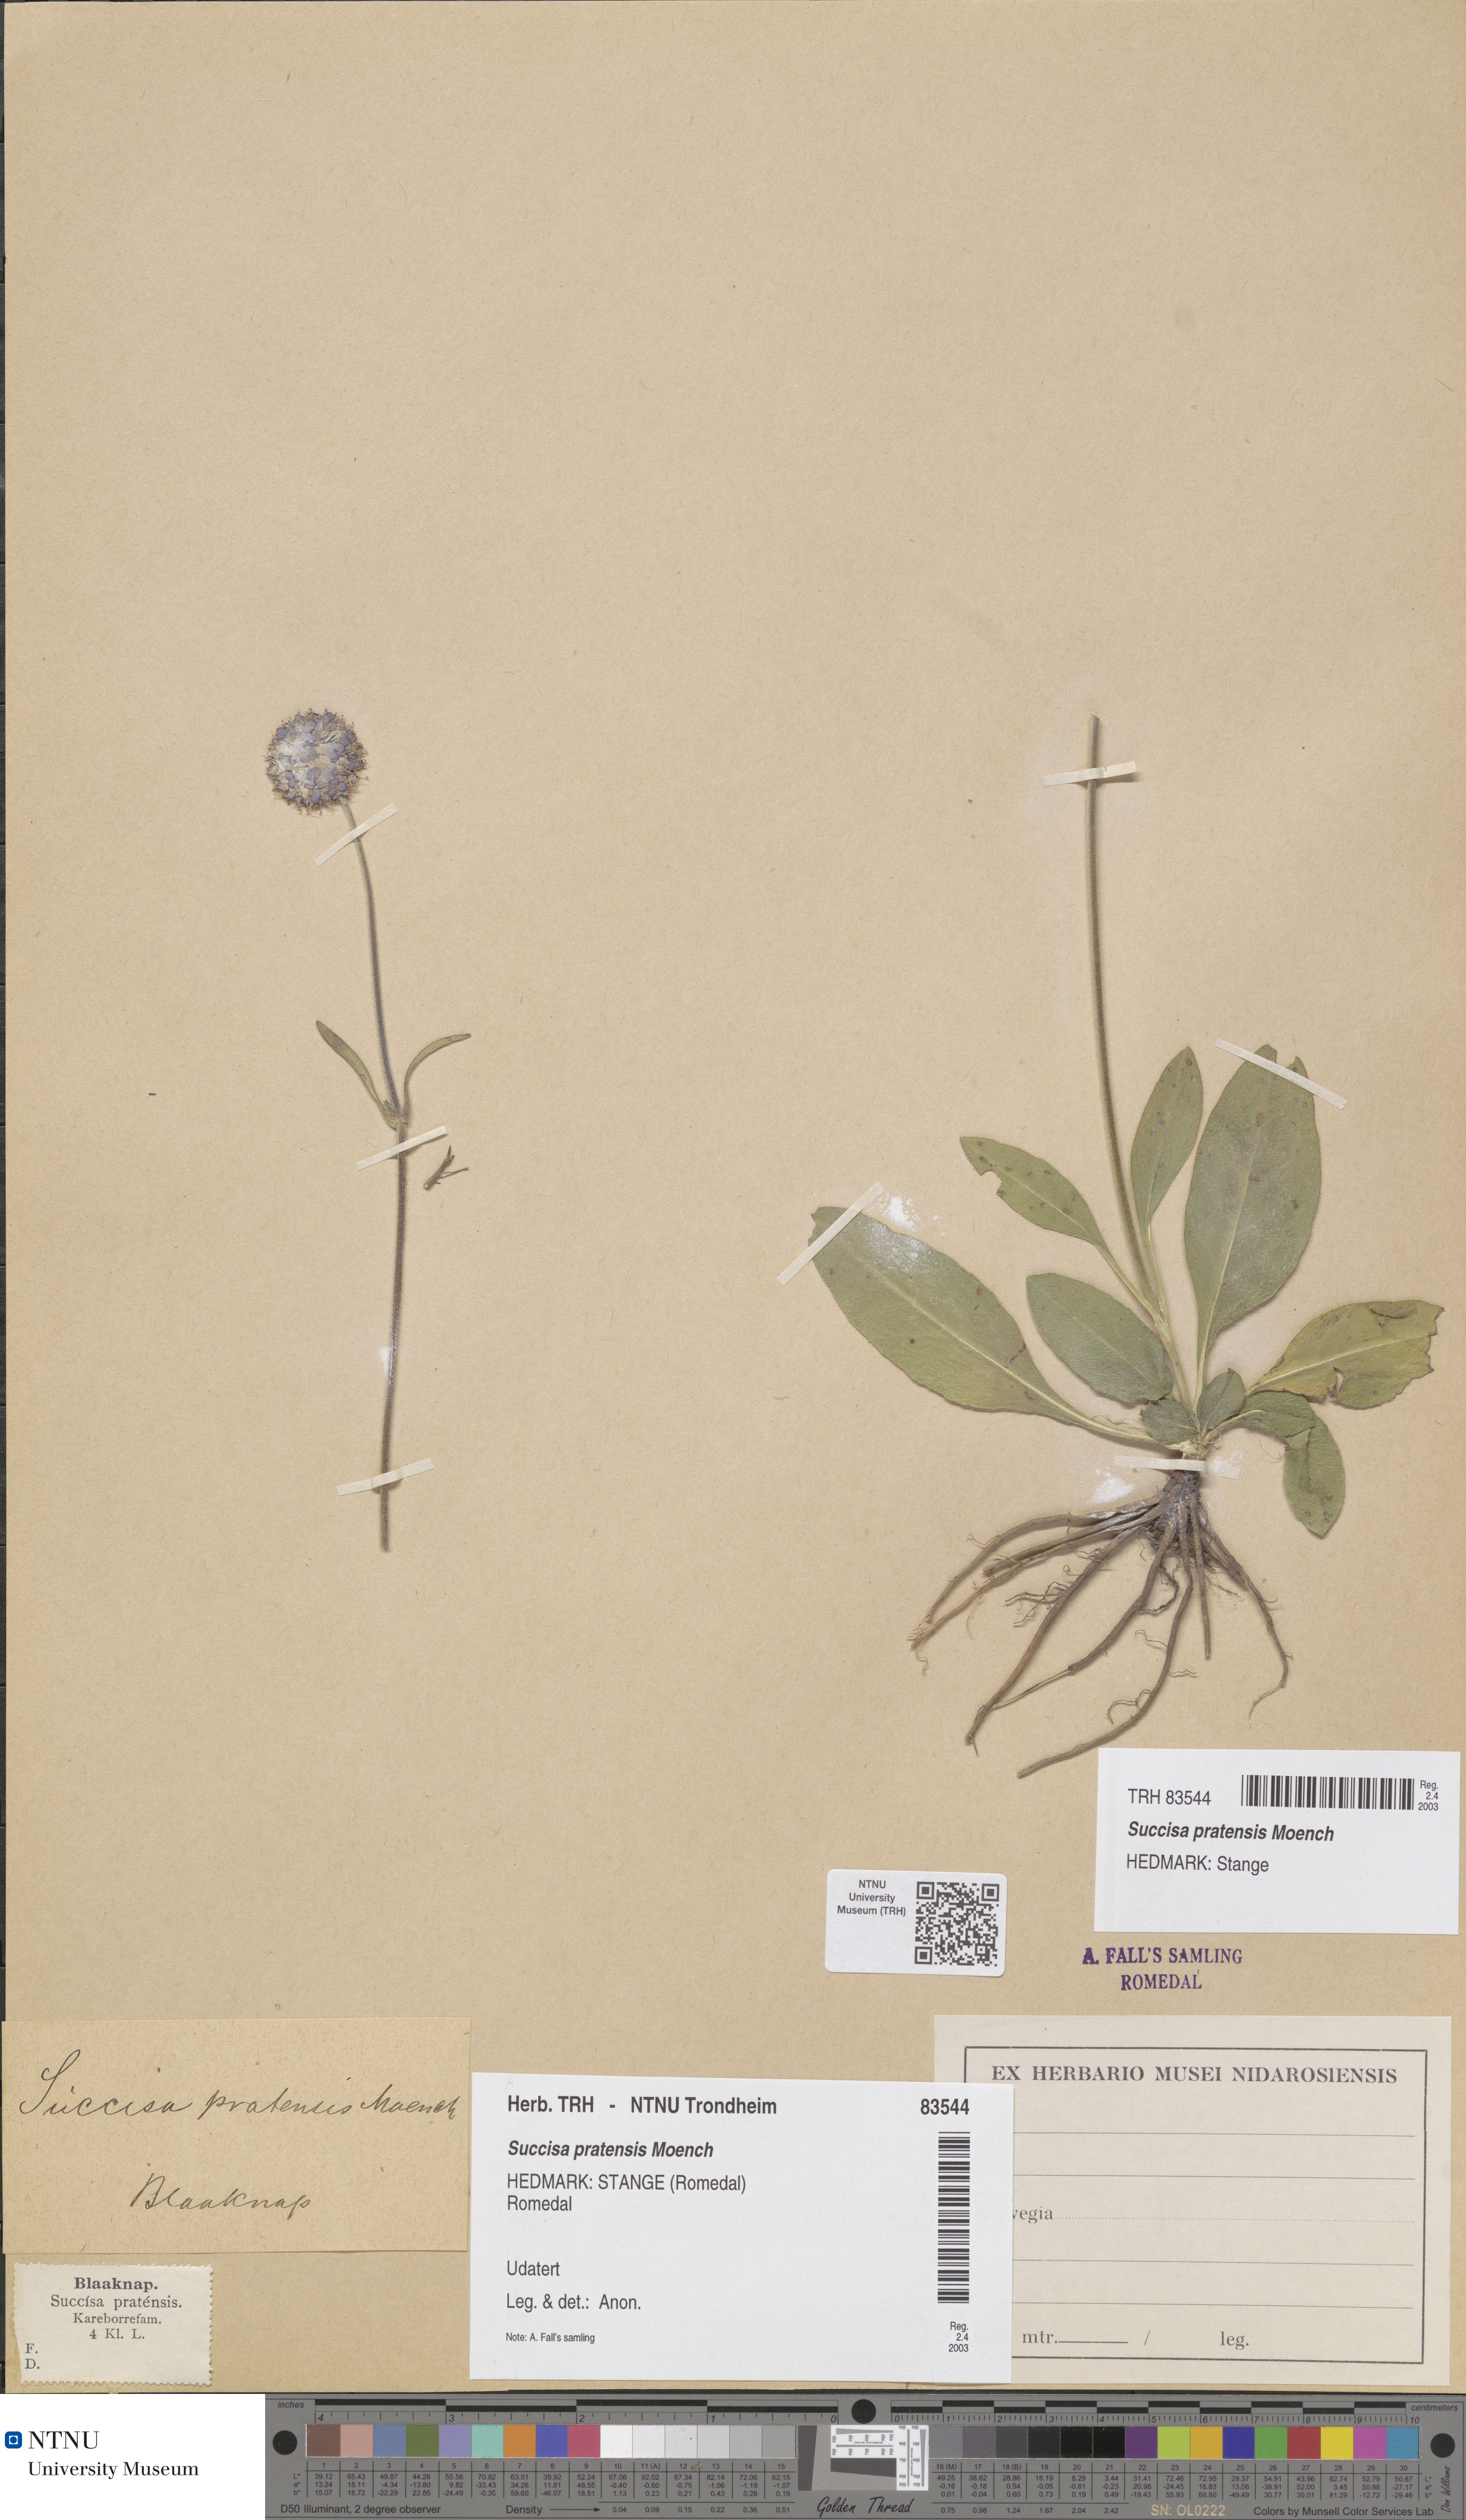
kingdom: Plantae
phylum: Tracheophyta
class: Magnoliopsida
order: Dipsacales
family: Caprifoliaceae
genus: Succisa
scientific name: Succisa pratensis
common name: Devil's-bit
